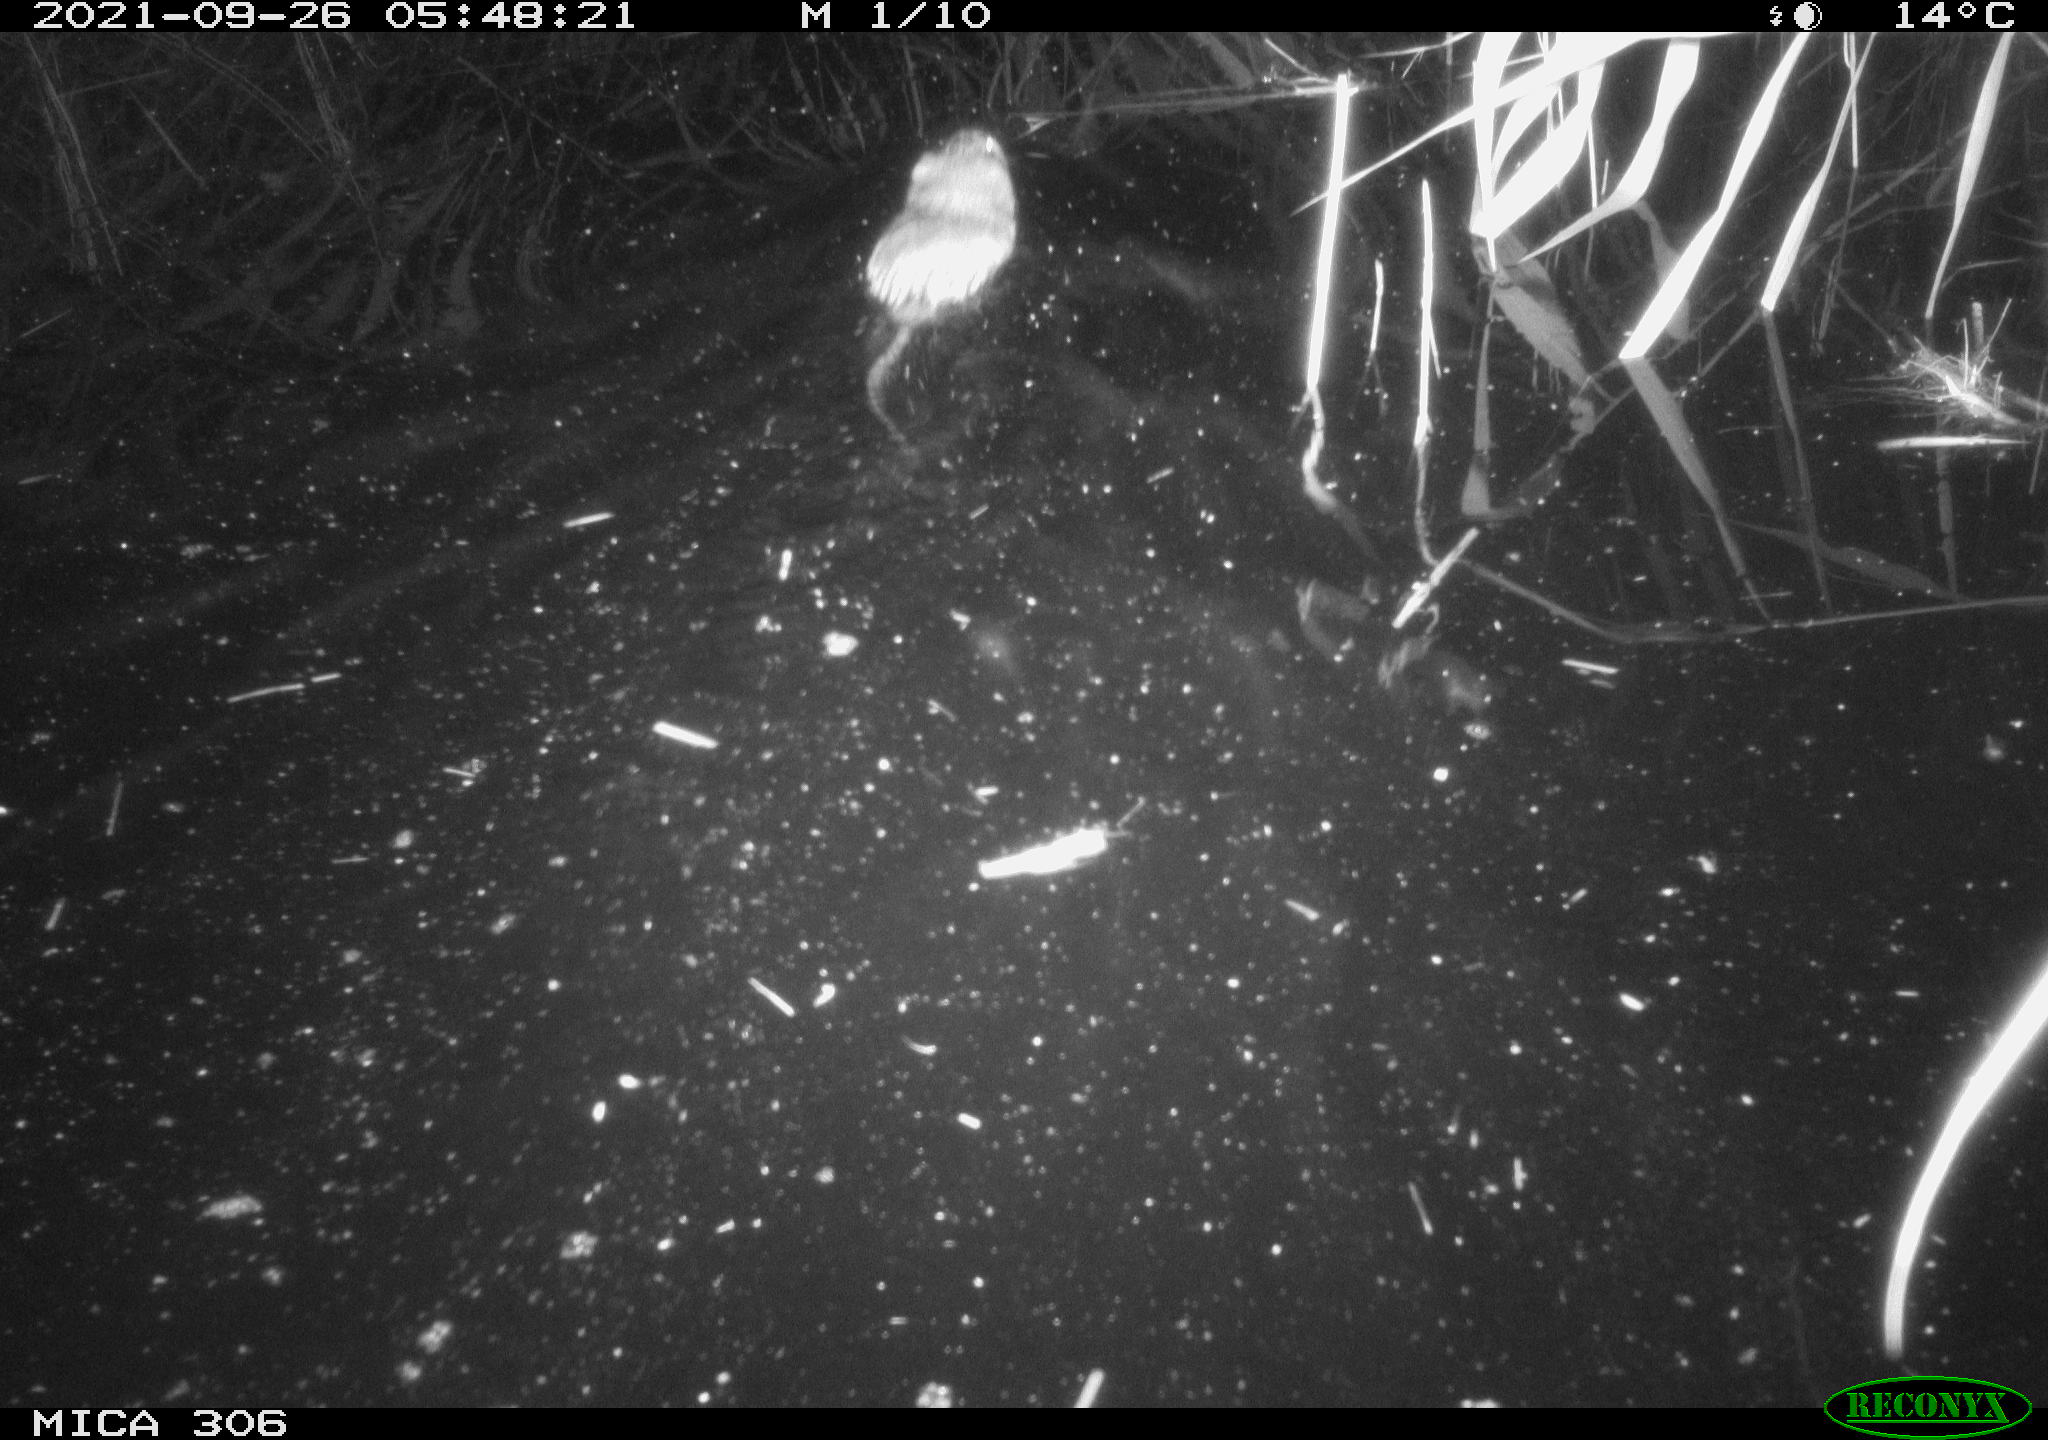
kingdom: Animalia
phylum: Chordata
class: Mammalia
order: Rodentia
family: Cricetidae
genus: Ondatra
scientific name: Ondatra zibethicus
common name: Muskrat
